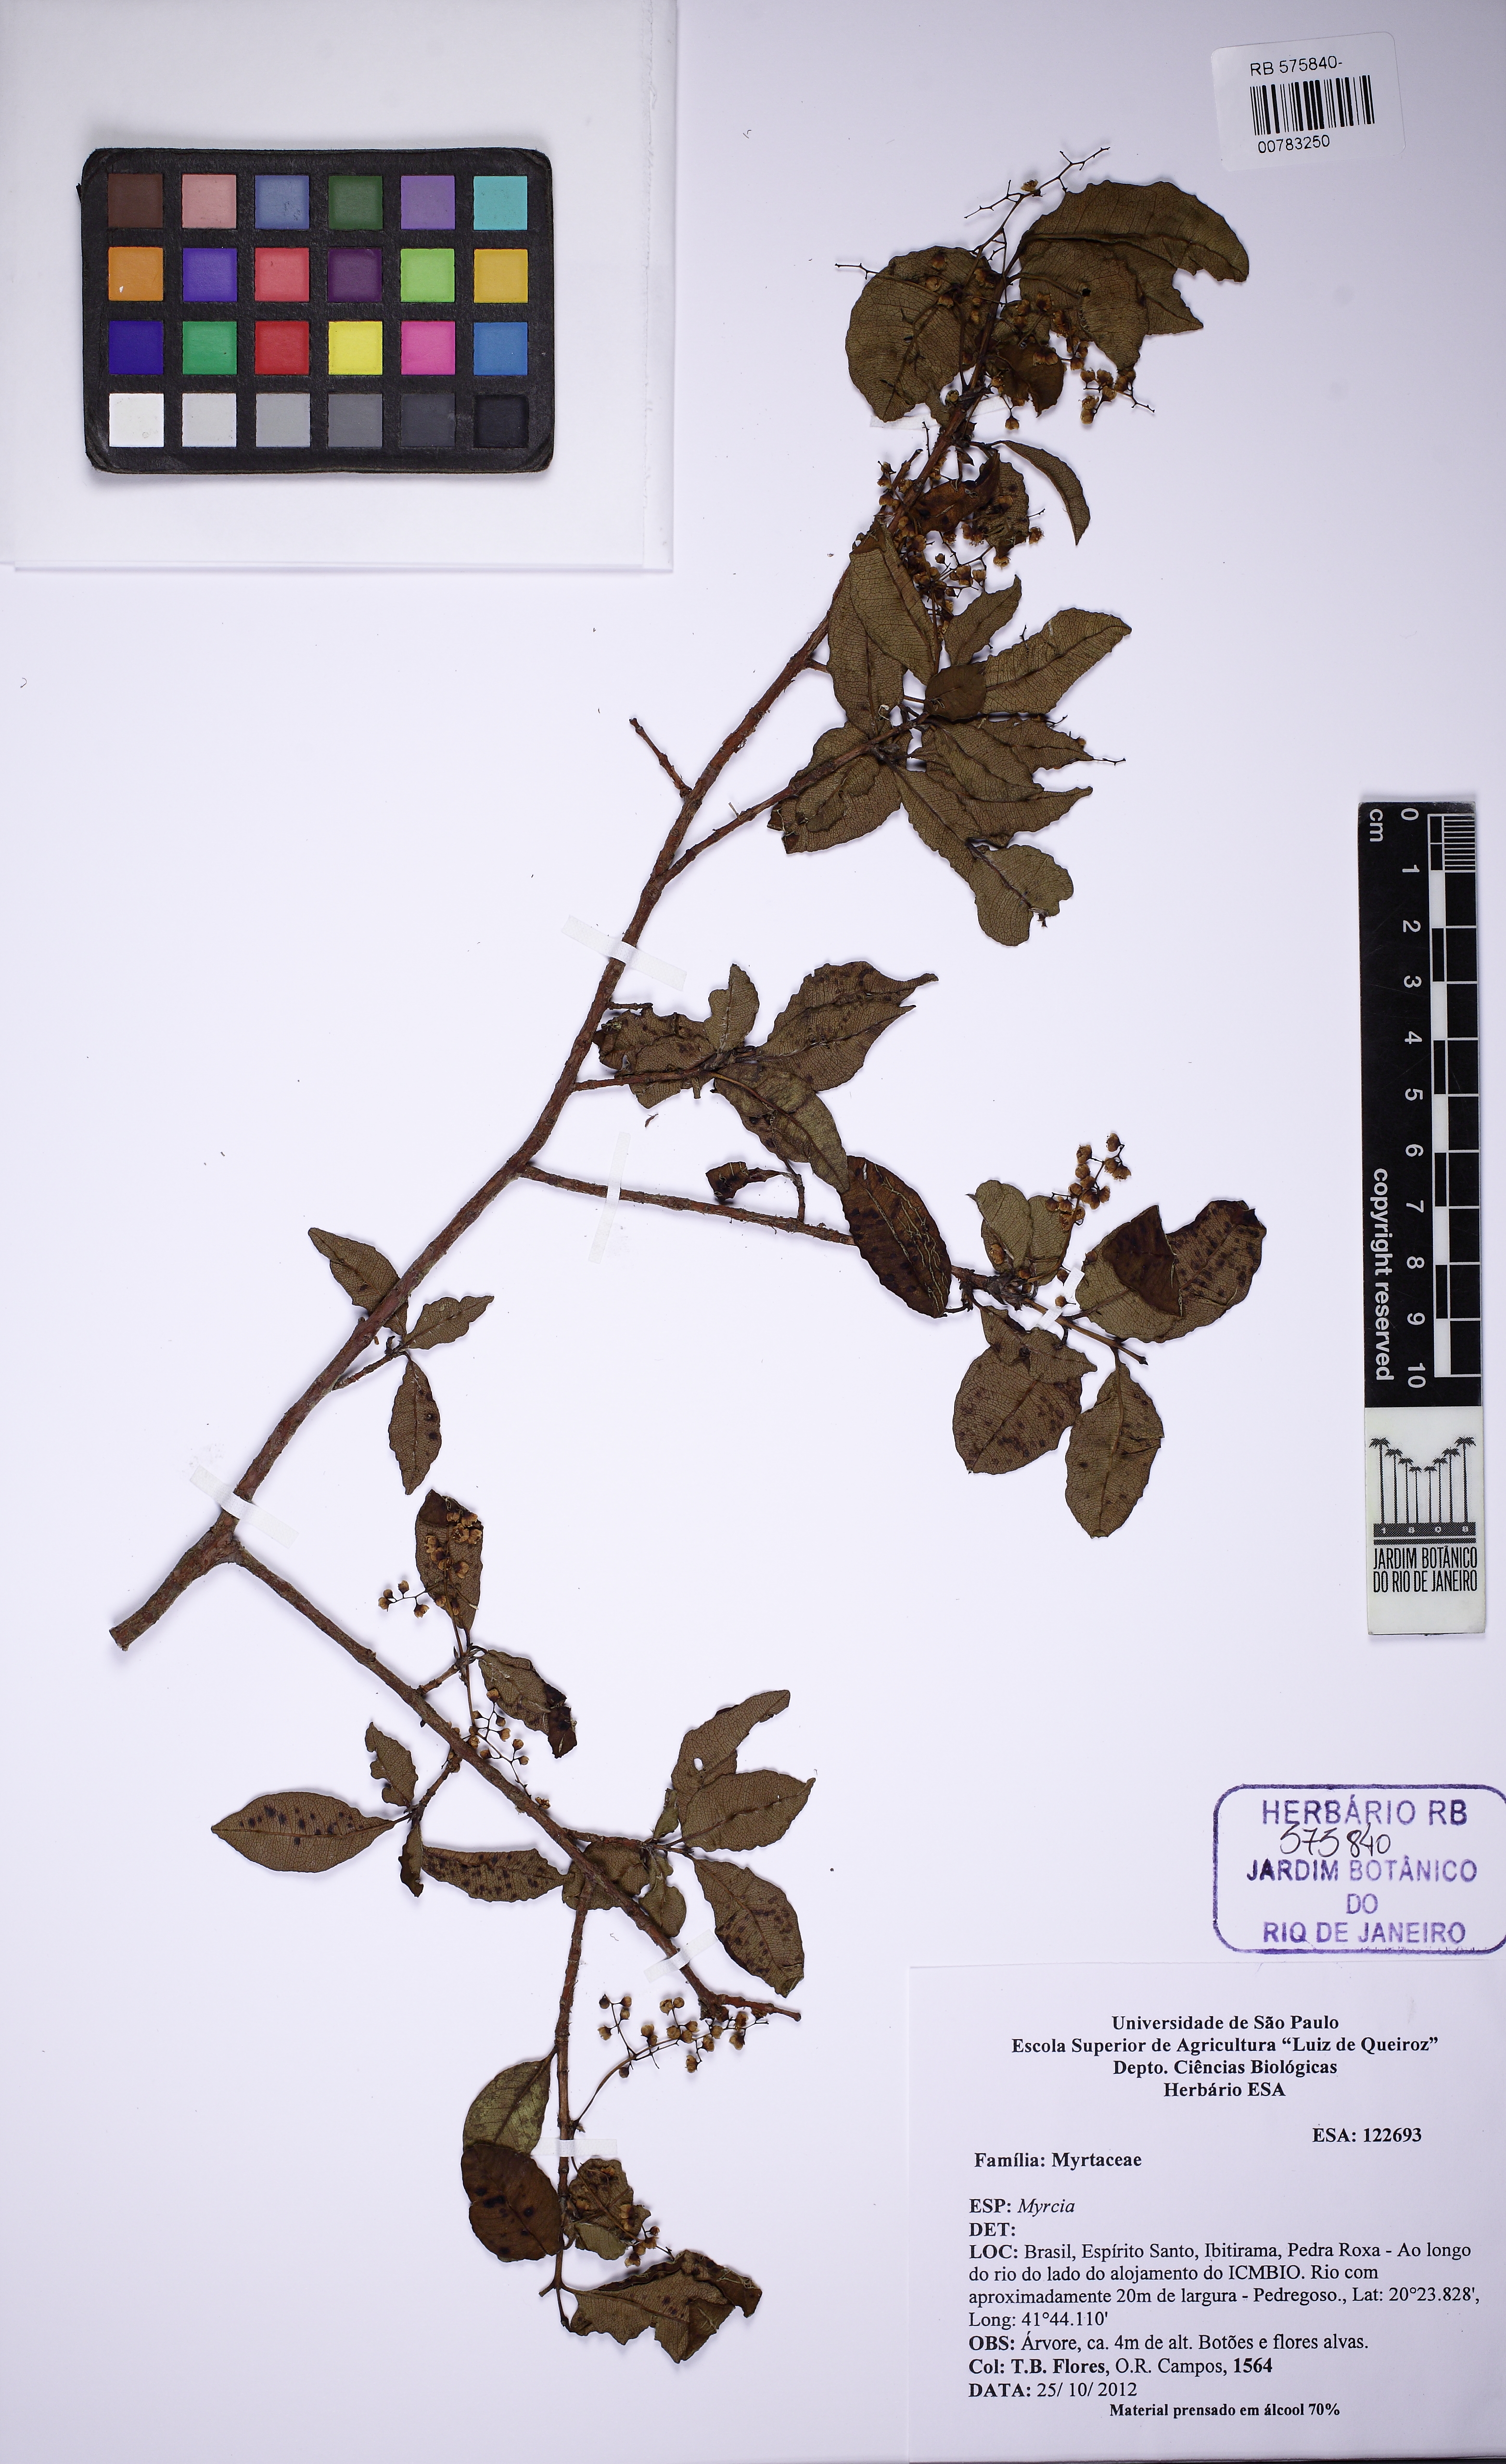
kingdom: Plantae
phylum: Tracheophyta
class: Magnoliopsida
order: Myrtales
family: Myrtaceae
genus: Myrcia
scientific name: Myrcia laruotteana
